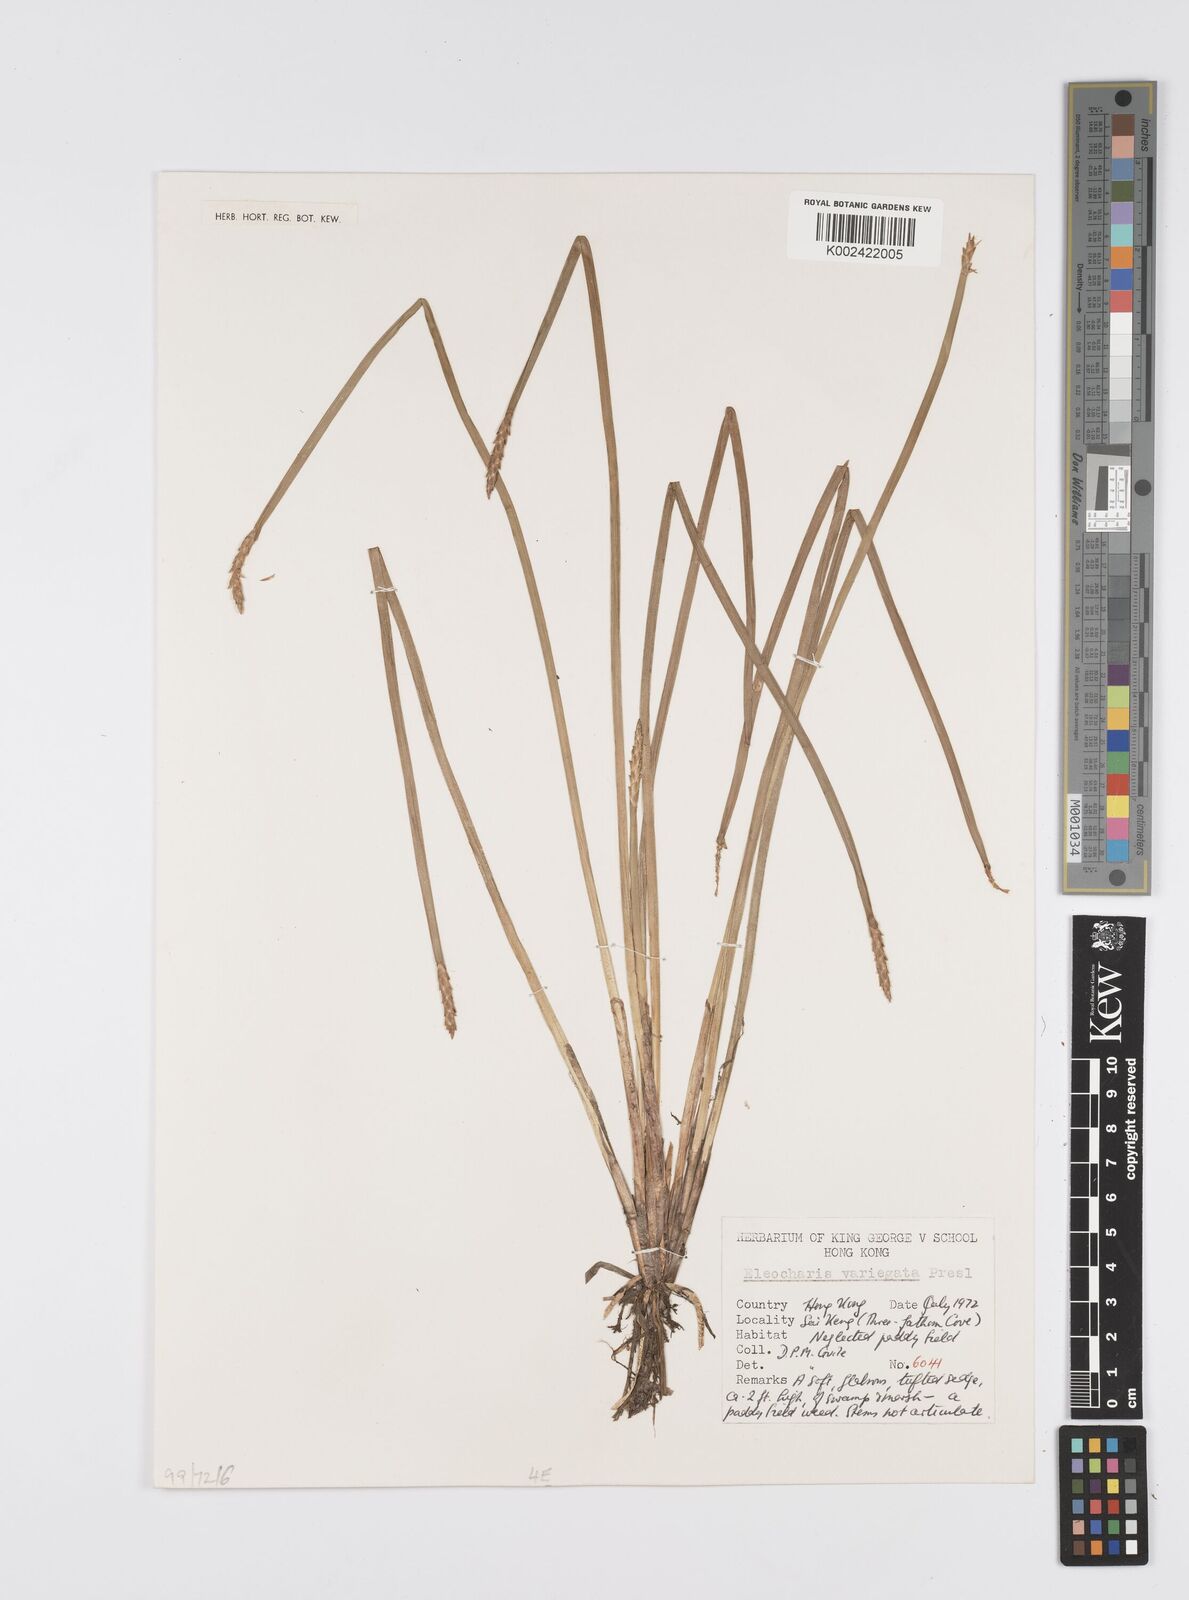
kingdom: Plantae
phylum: Tracheophyta
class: Liliopsida
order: Poales
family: Cyperaceae
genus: Eleocharis
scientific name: Eleocharis variegata
